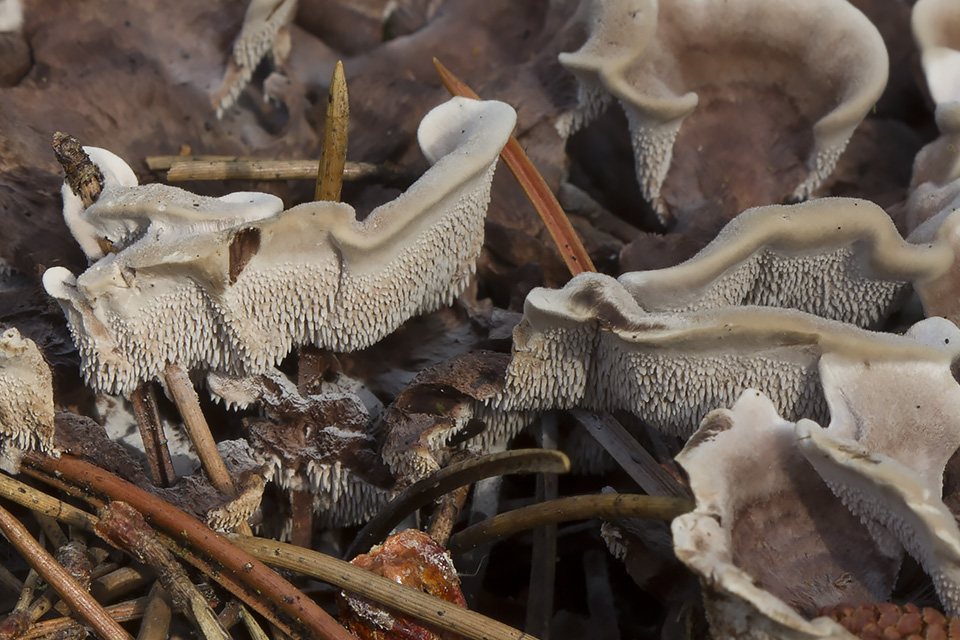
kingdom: Fungi
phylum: Basidiomycota
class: Agaricomycetes
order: Thelephorales
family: Thelephoraceae
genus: Phellodon
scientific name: Phellodon tomentosus
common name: vellugtende duftpigsvamp
